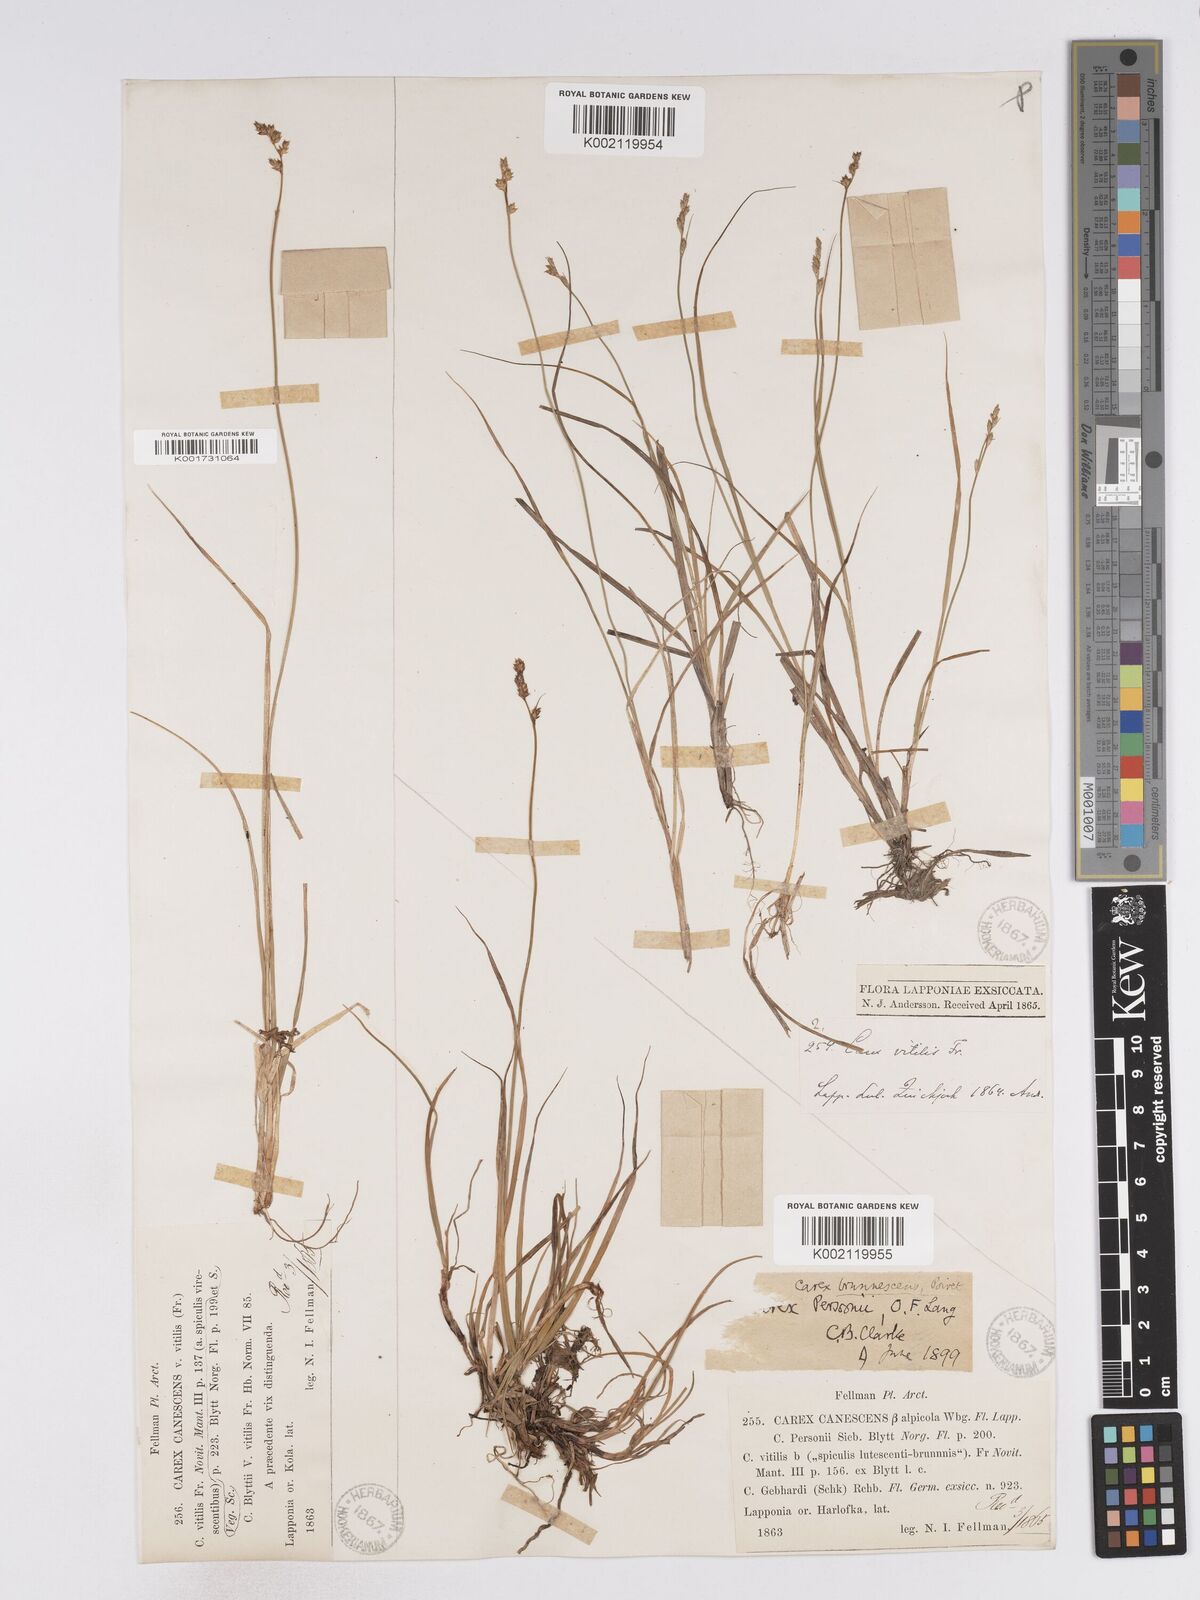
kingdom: Plantae
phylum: Tracheophyta
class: Liliopsida
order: Poales
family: Cyperaceae
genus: Carex
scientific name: Carex canescens
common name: White sedge
